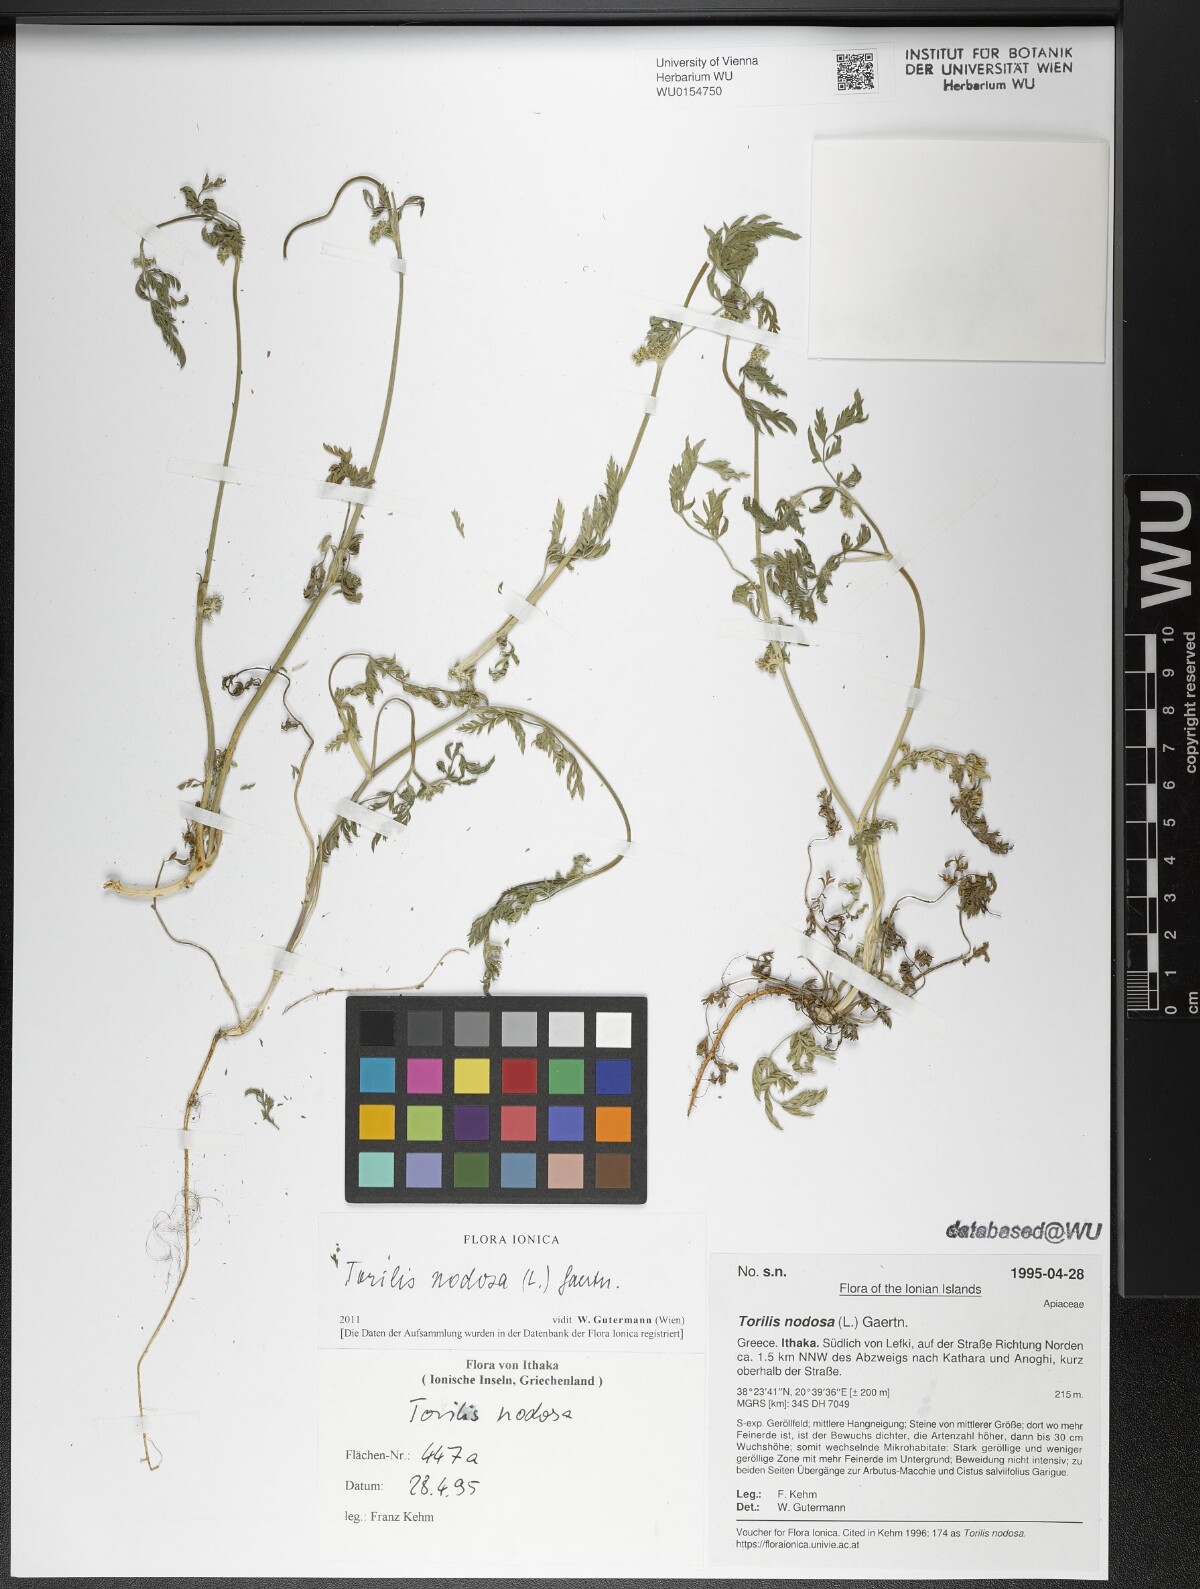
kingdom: Plantae
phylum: Tracheophyta
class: Magnoliopsida
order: Apiales
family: Apiaceae
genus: Torilis
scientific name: Torilis nodosa
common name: Knotted hedge-parsley
